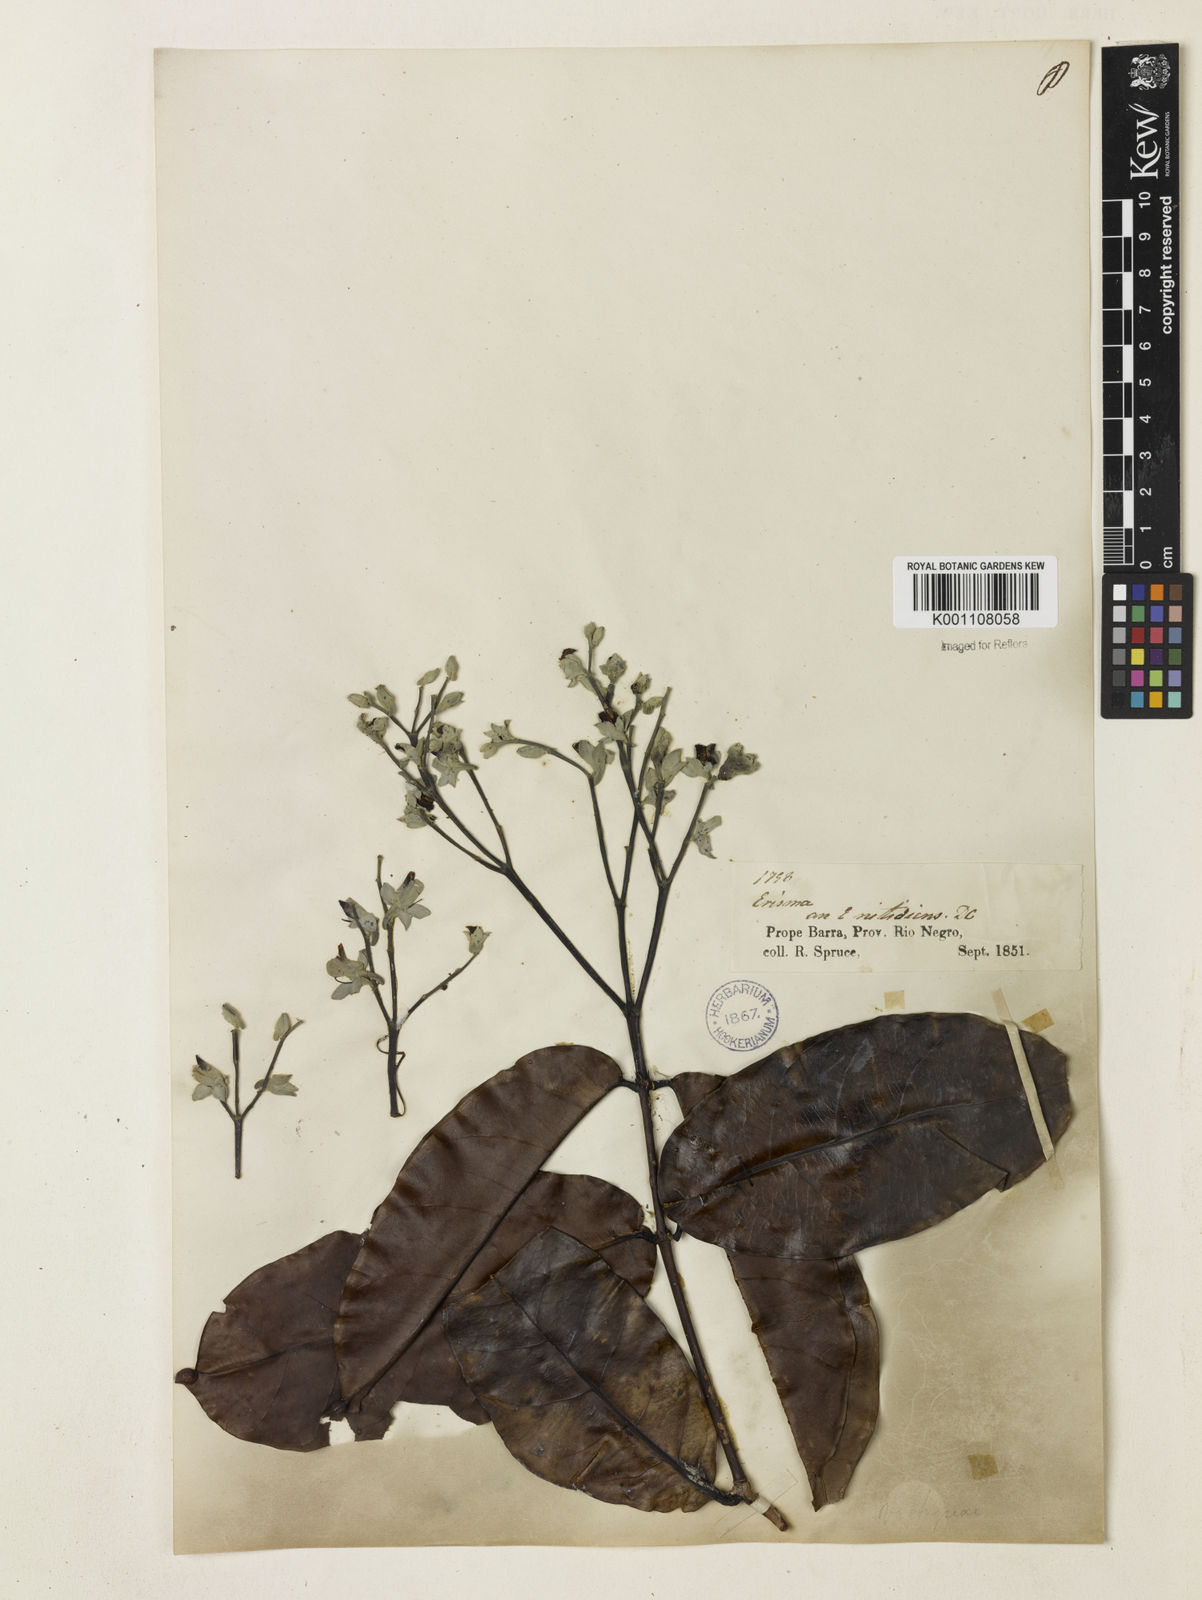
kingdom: Plantae
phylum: Tracheophyta
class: Magnoliopsida
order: Myrtales
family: Vochysiaceae
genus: Erisma
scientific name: Erisma calcaratum
